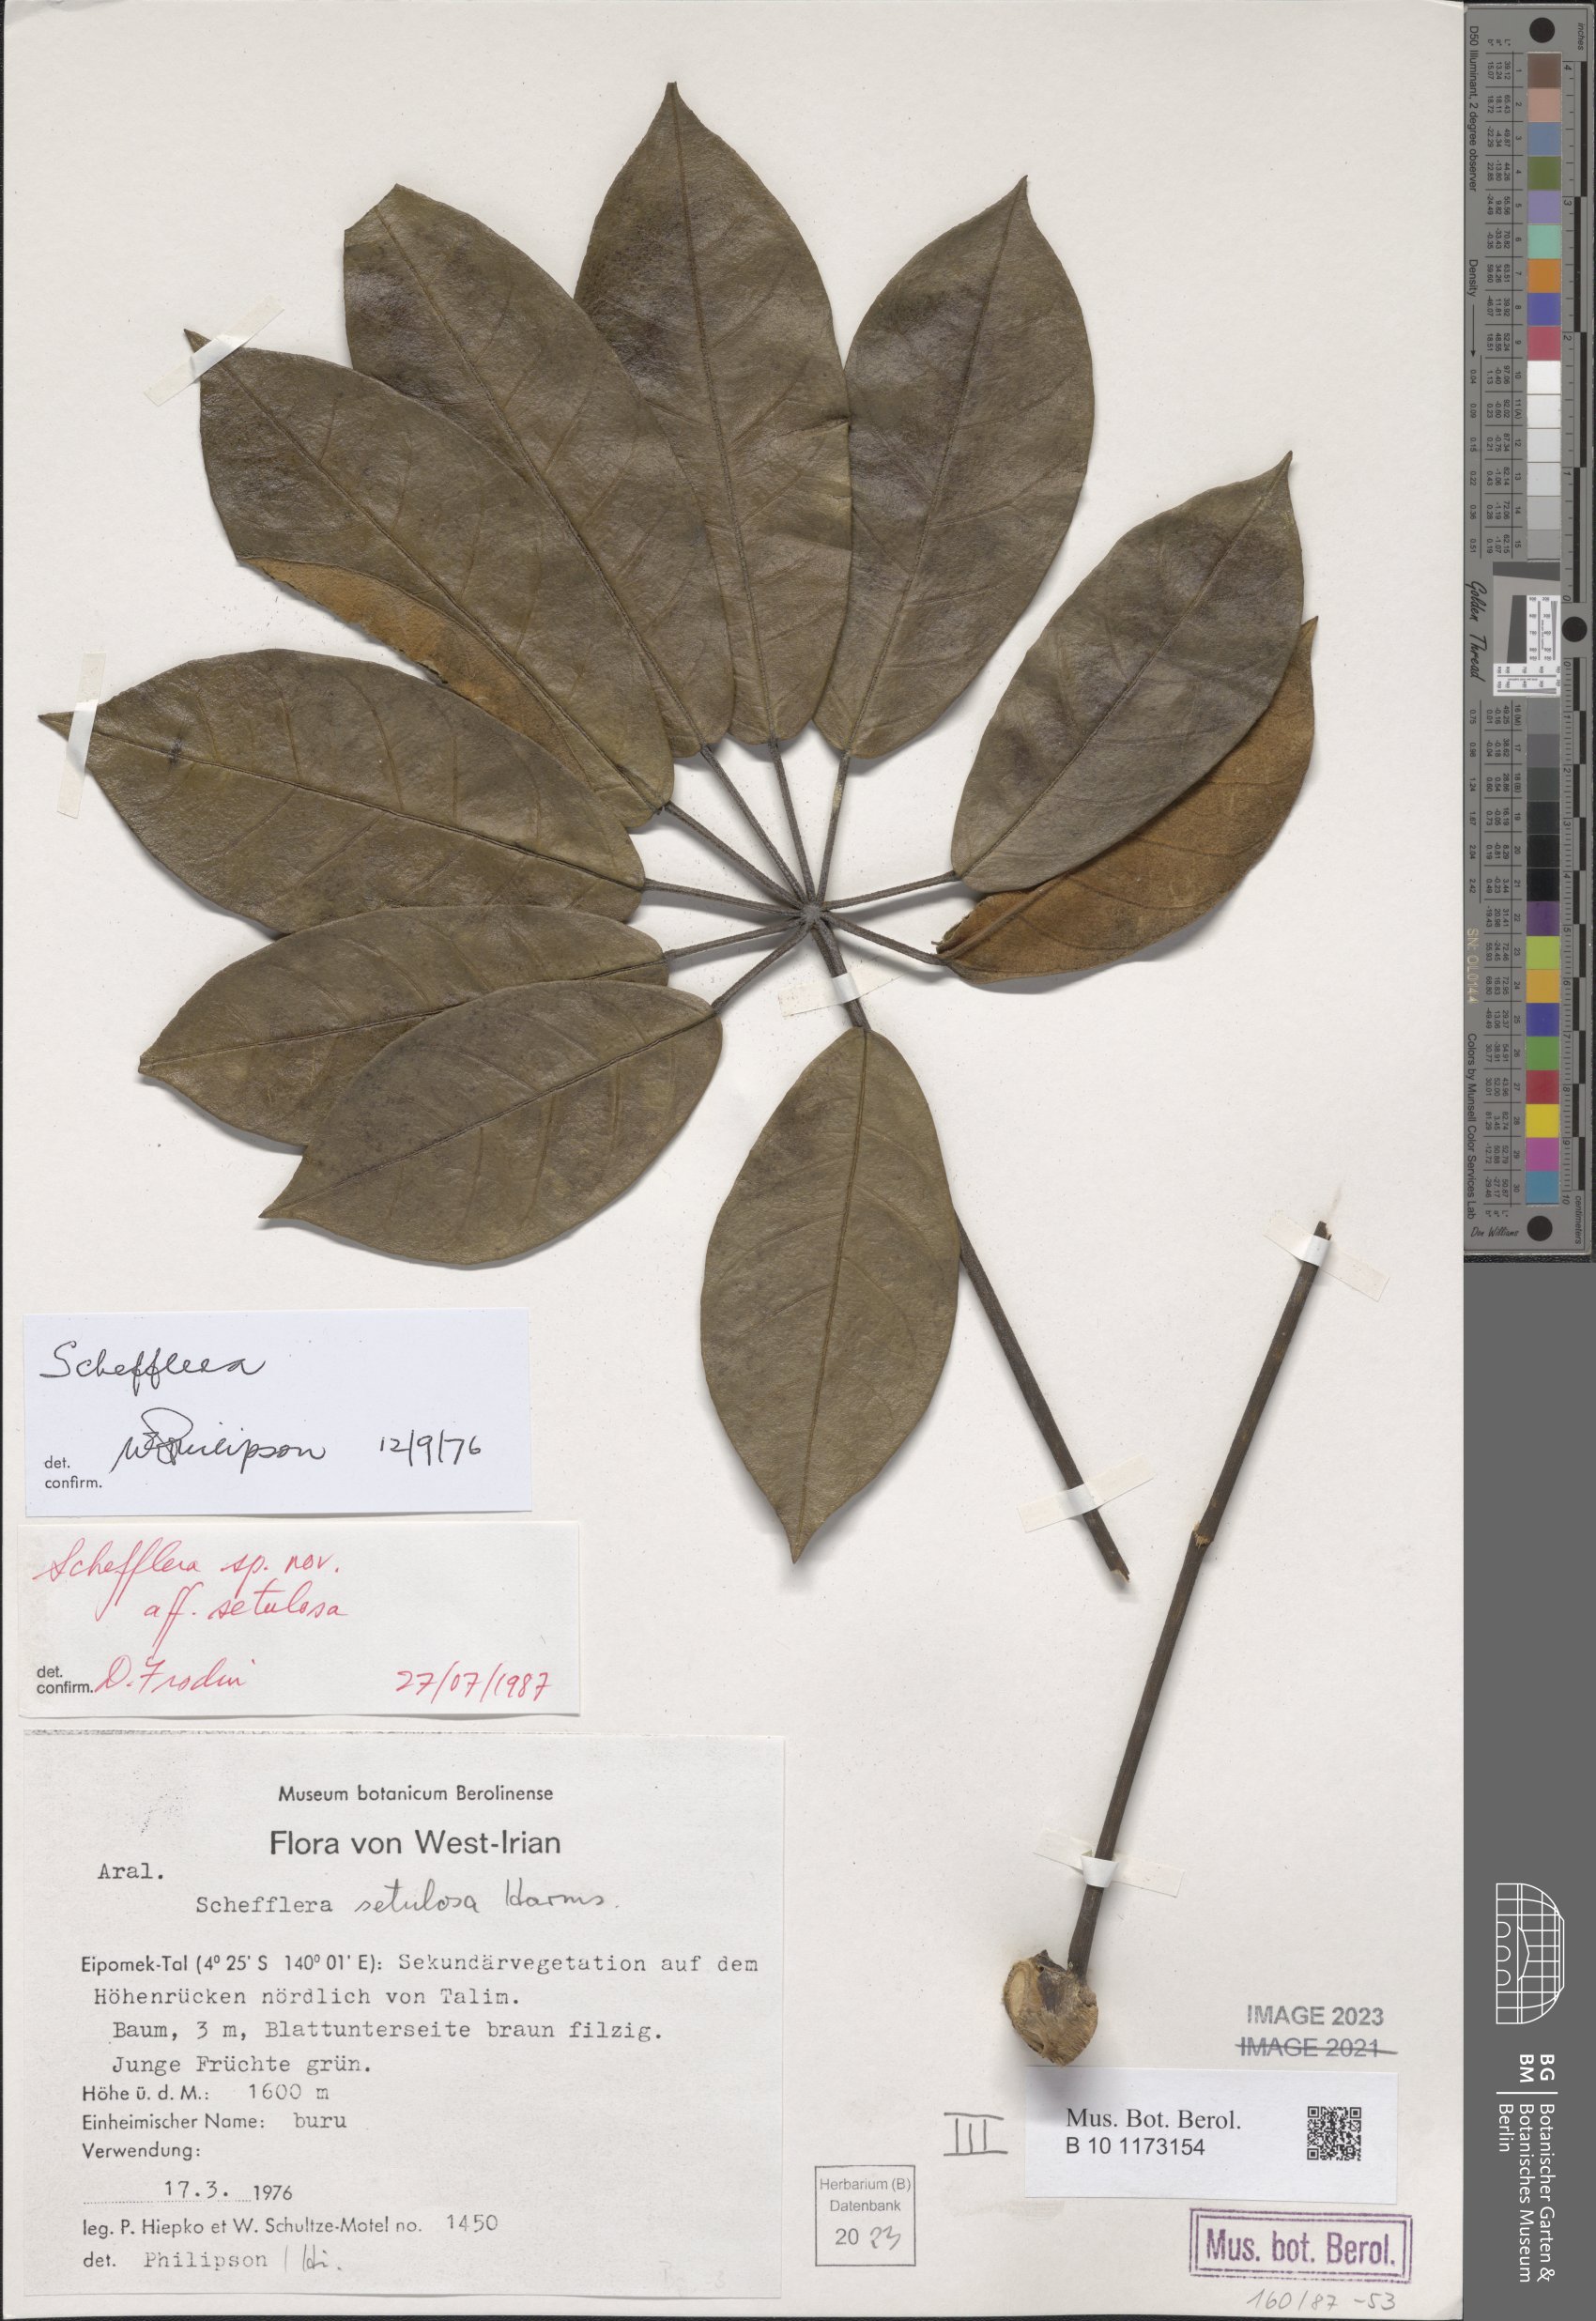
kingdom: Plantae
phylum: Tracheophyta
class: Magnoliopsida
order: Apiales
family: Araliaceae
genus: Schefflera
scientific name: Schefflera
